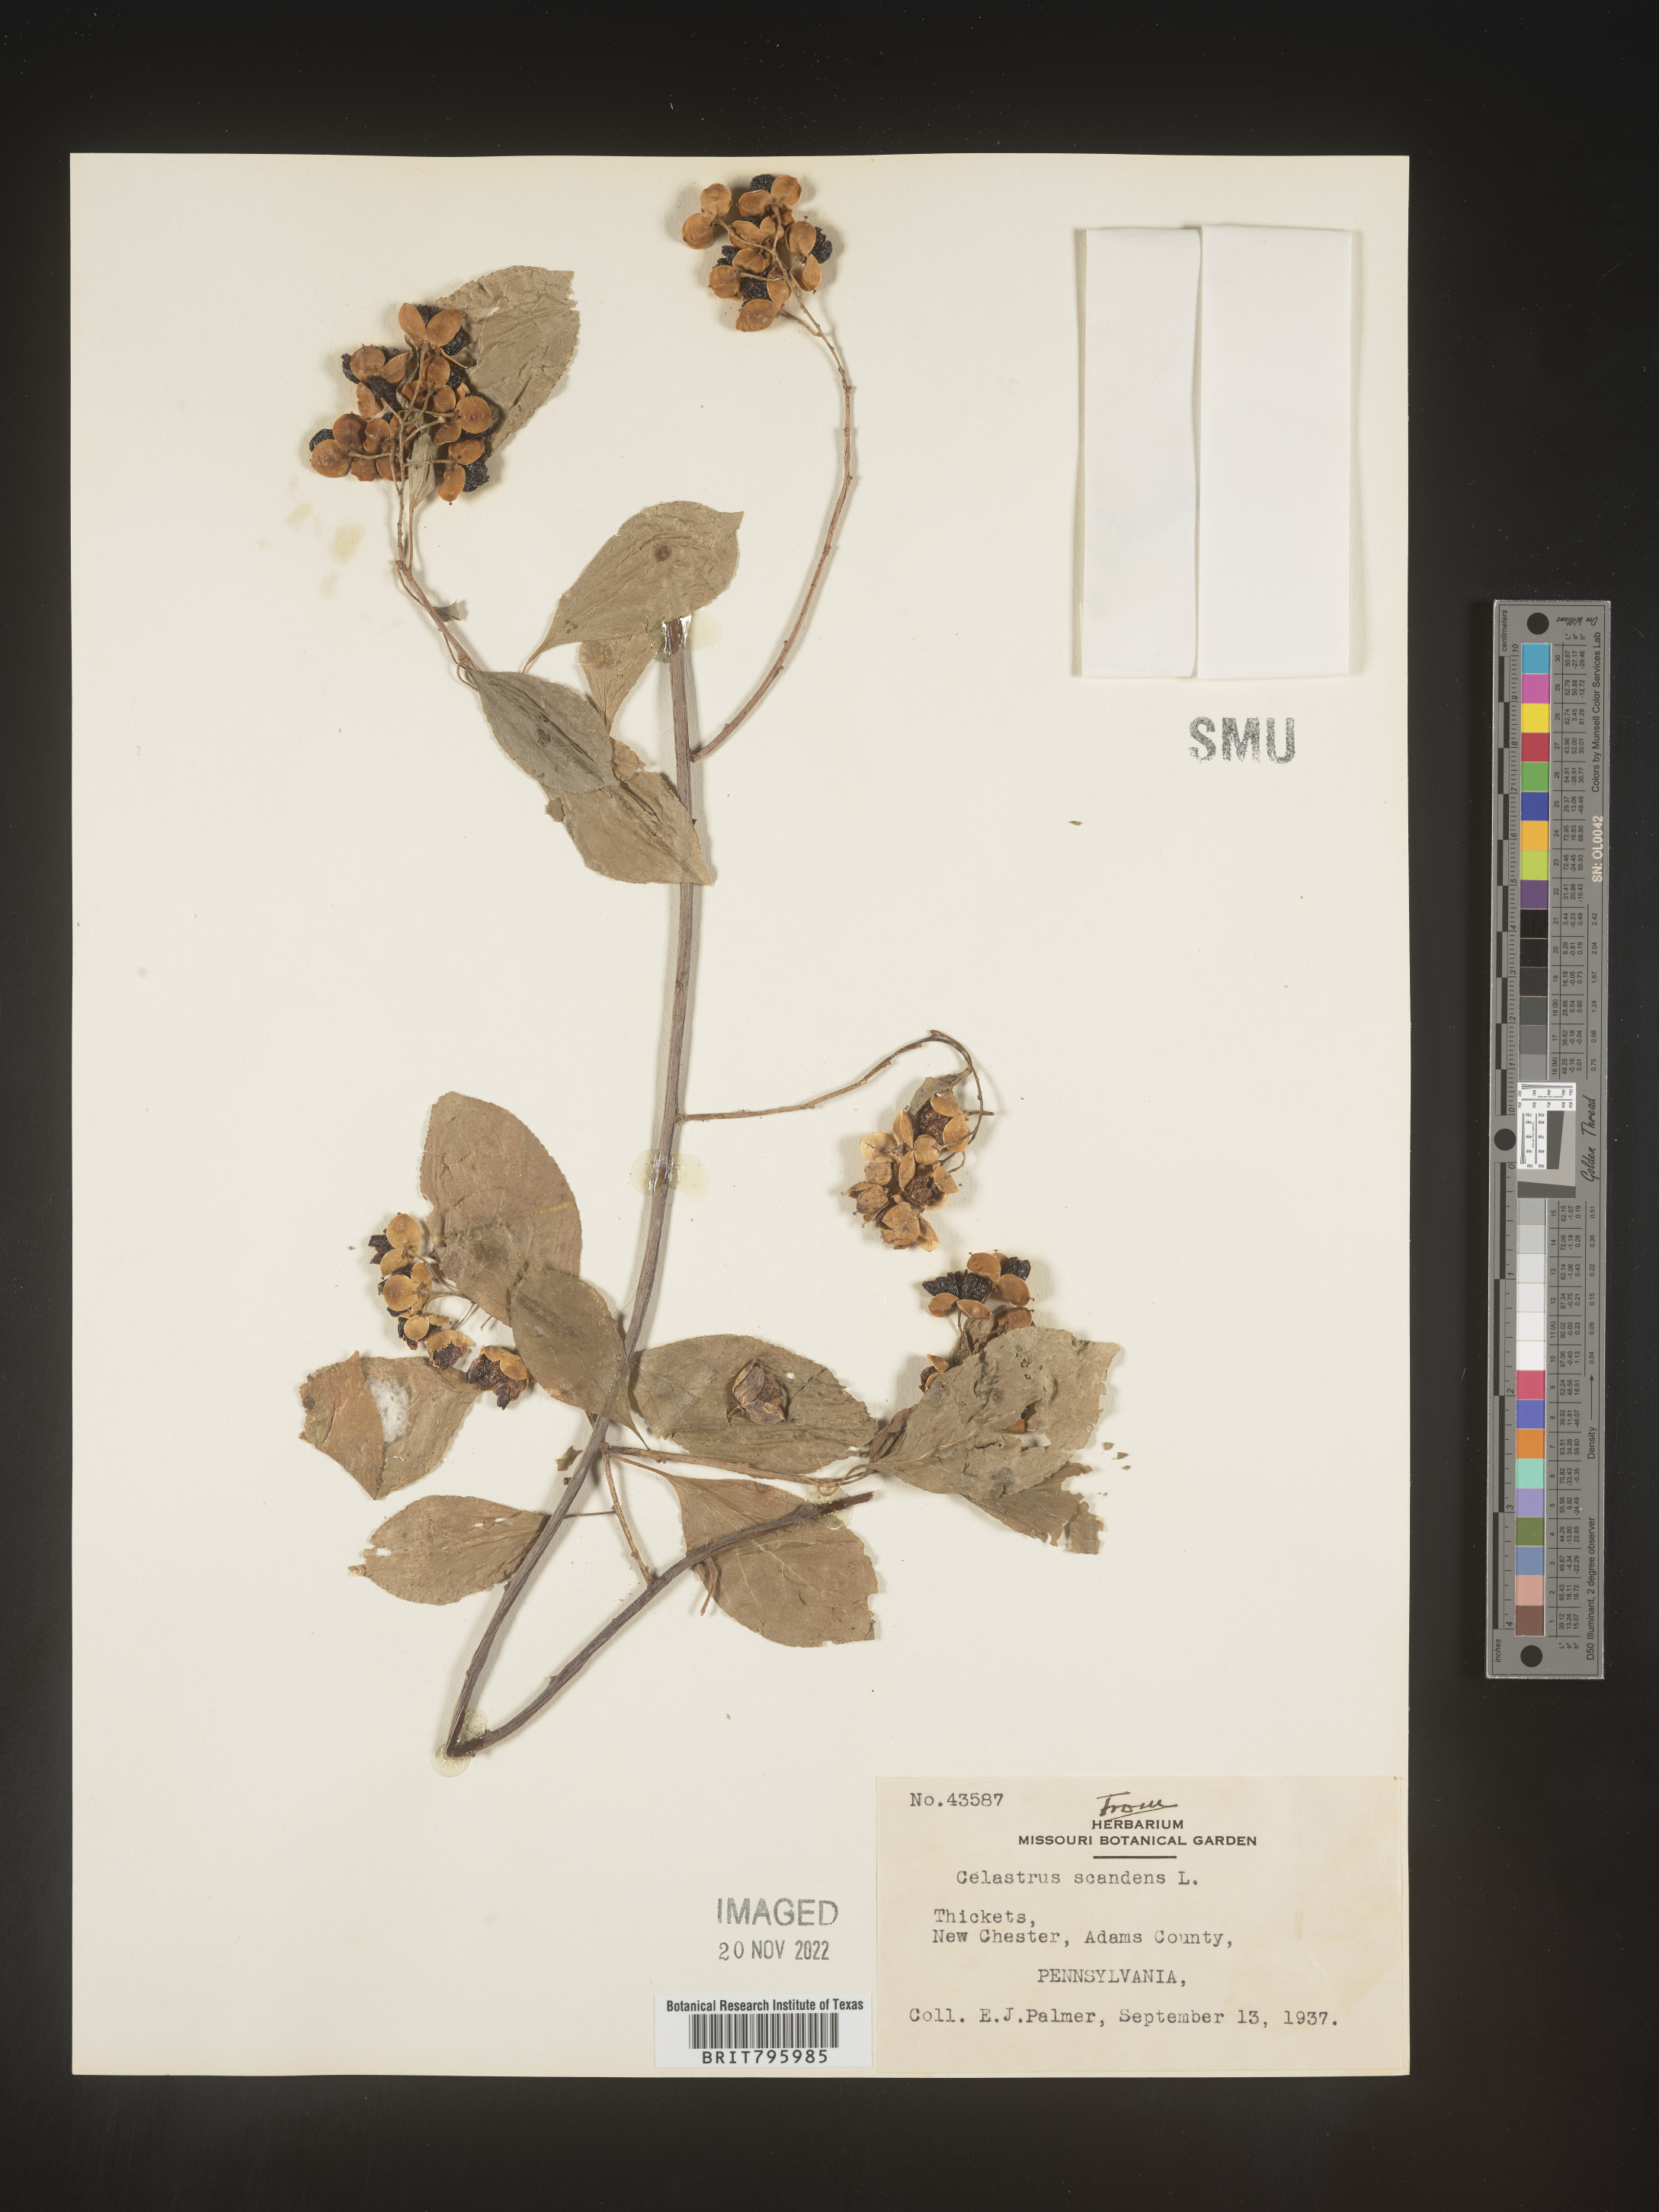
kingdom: Plantae
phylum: Tracheophyta
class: Magnoliopsida
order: Celastrales
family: Celastraceae
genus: Celastrus
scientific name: Celastrus
